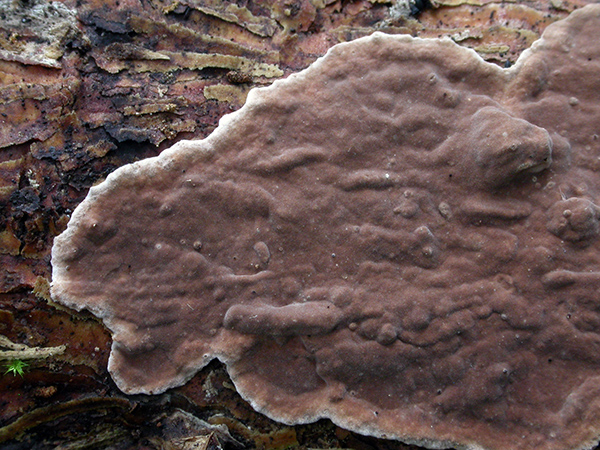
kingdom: Fungi
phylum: Basidiomycota
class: Agaricomycetes
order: Russulales
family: Echinodontiaceae
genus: Amylostereum
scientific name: Amylostereum chailletii
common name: gran-lædersvamp
